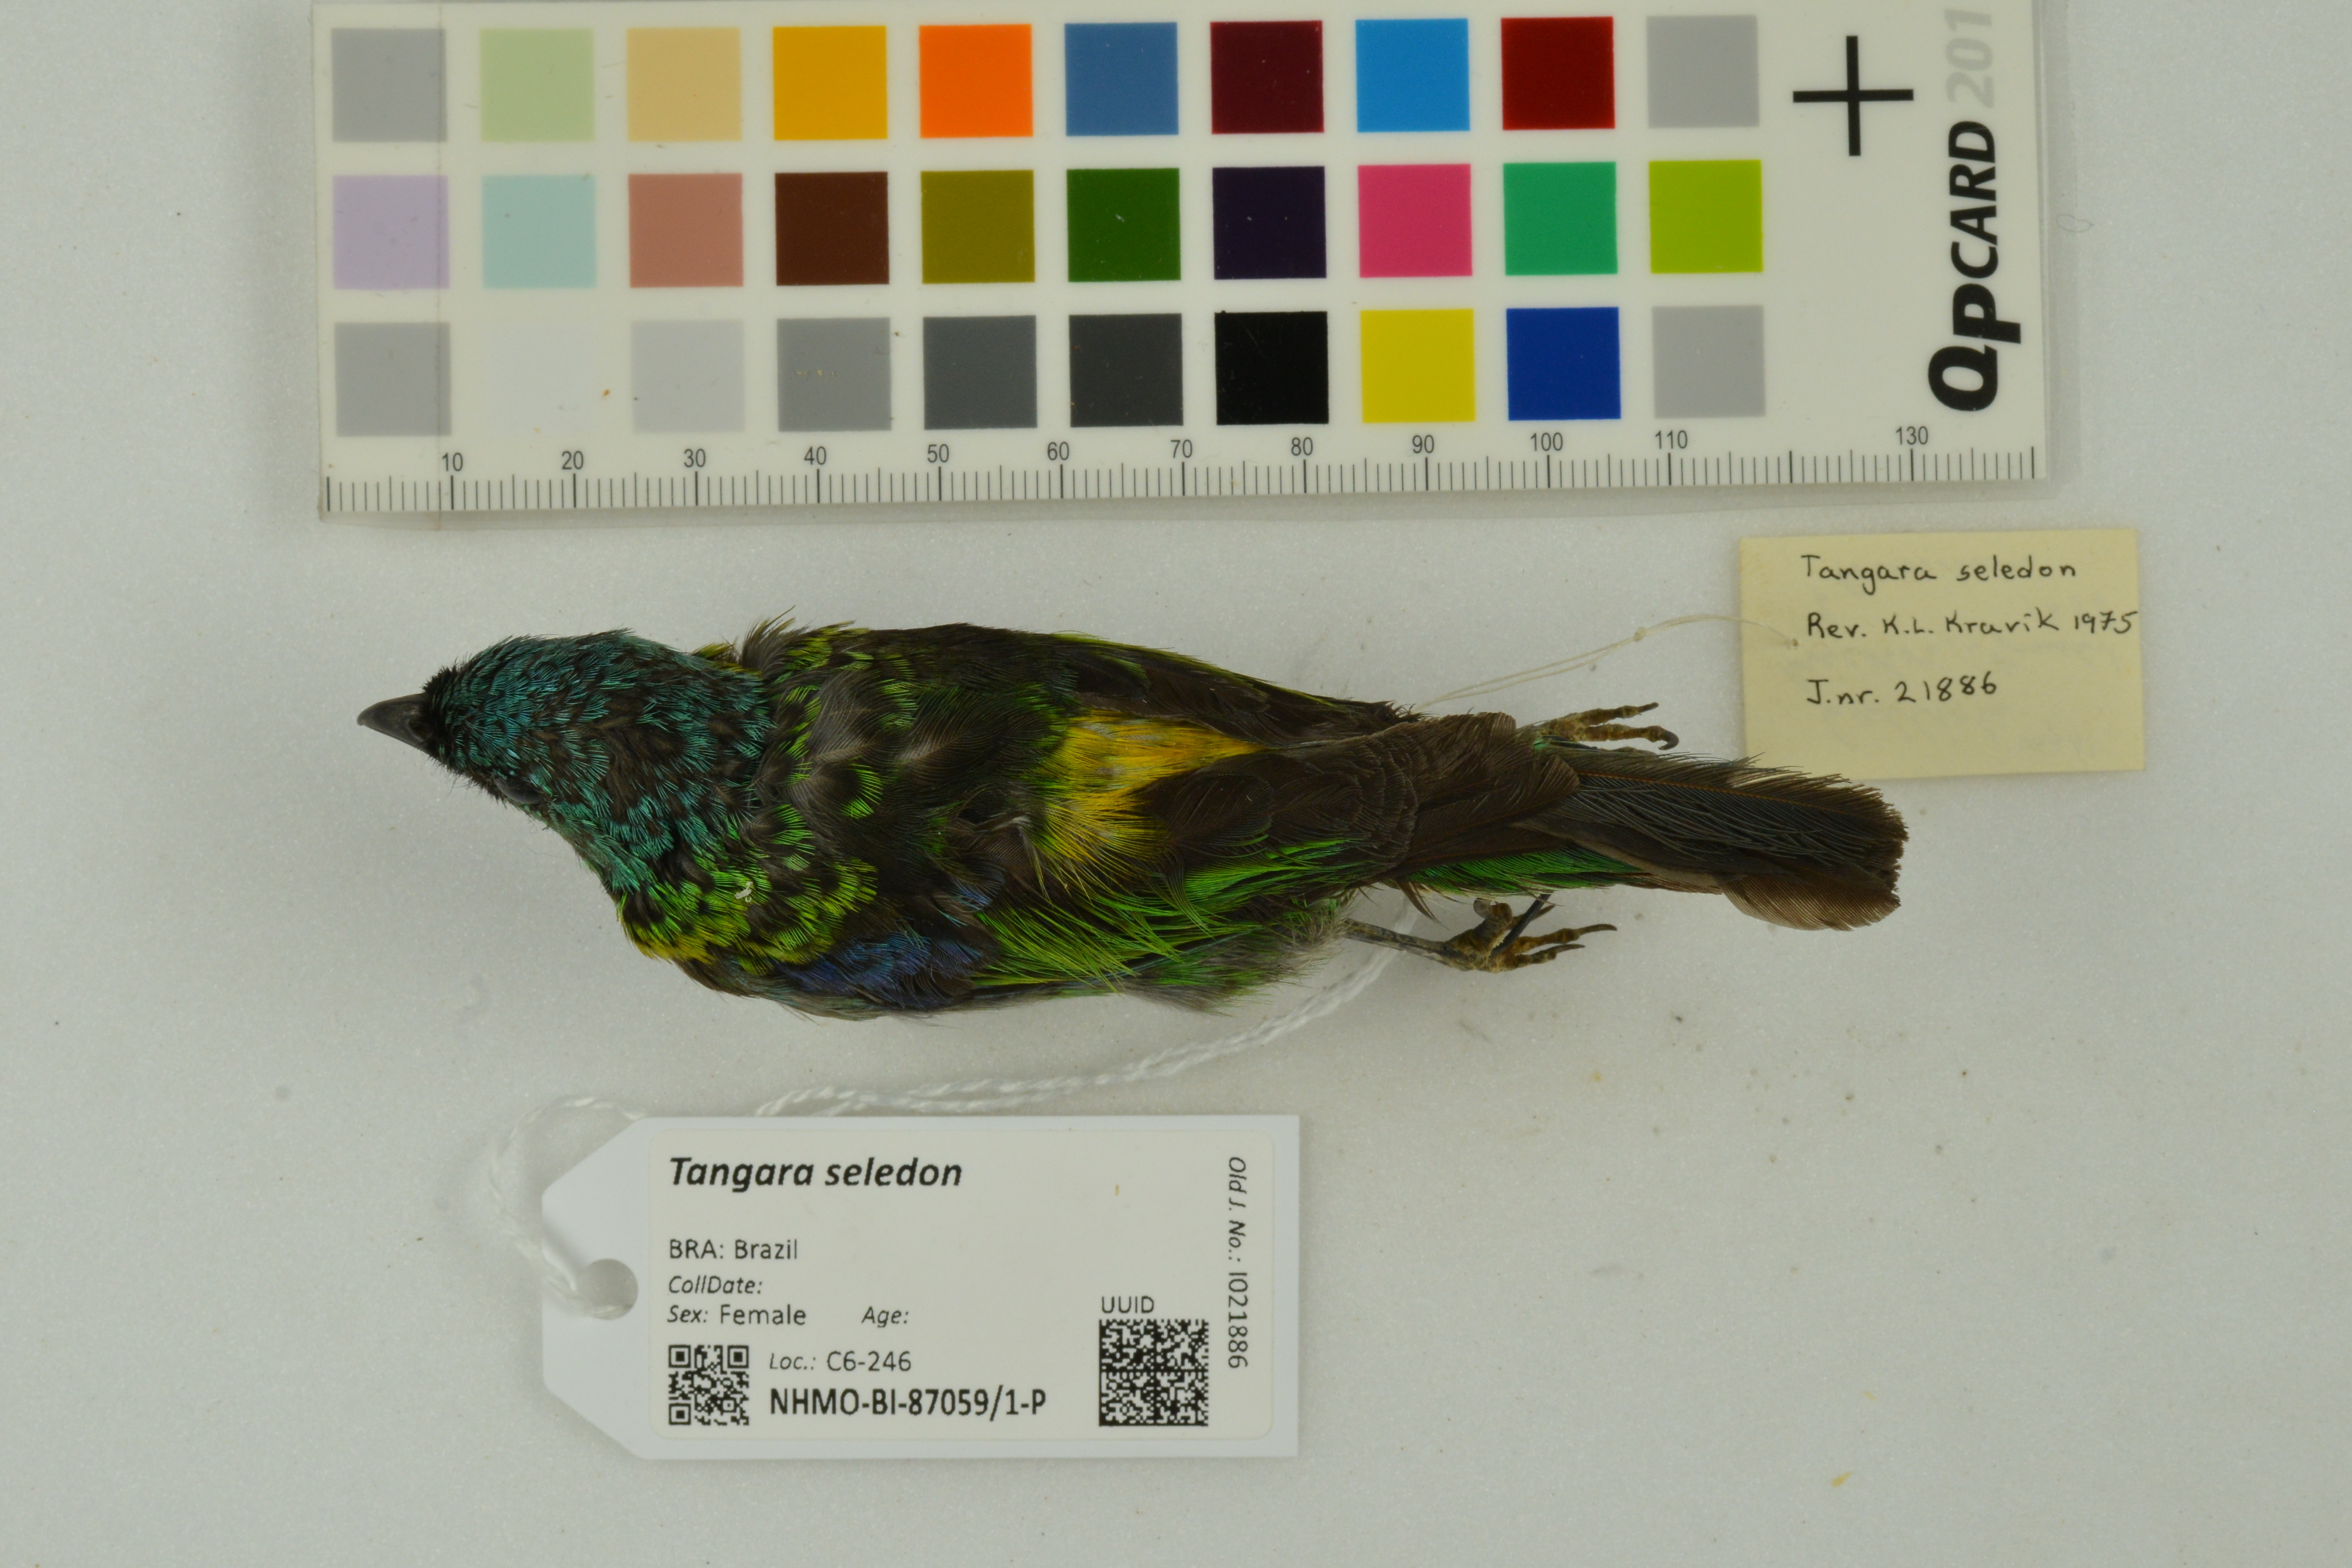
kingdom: Animalia
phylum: Chordata
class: Aves
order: Passeriformes
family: Thraupidae
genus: Tangara
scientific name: Tangara seledon
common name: Green-headed tanager
